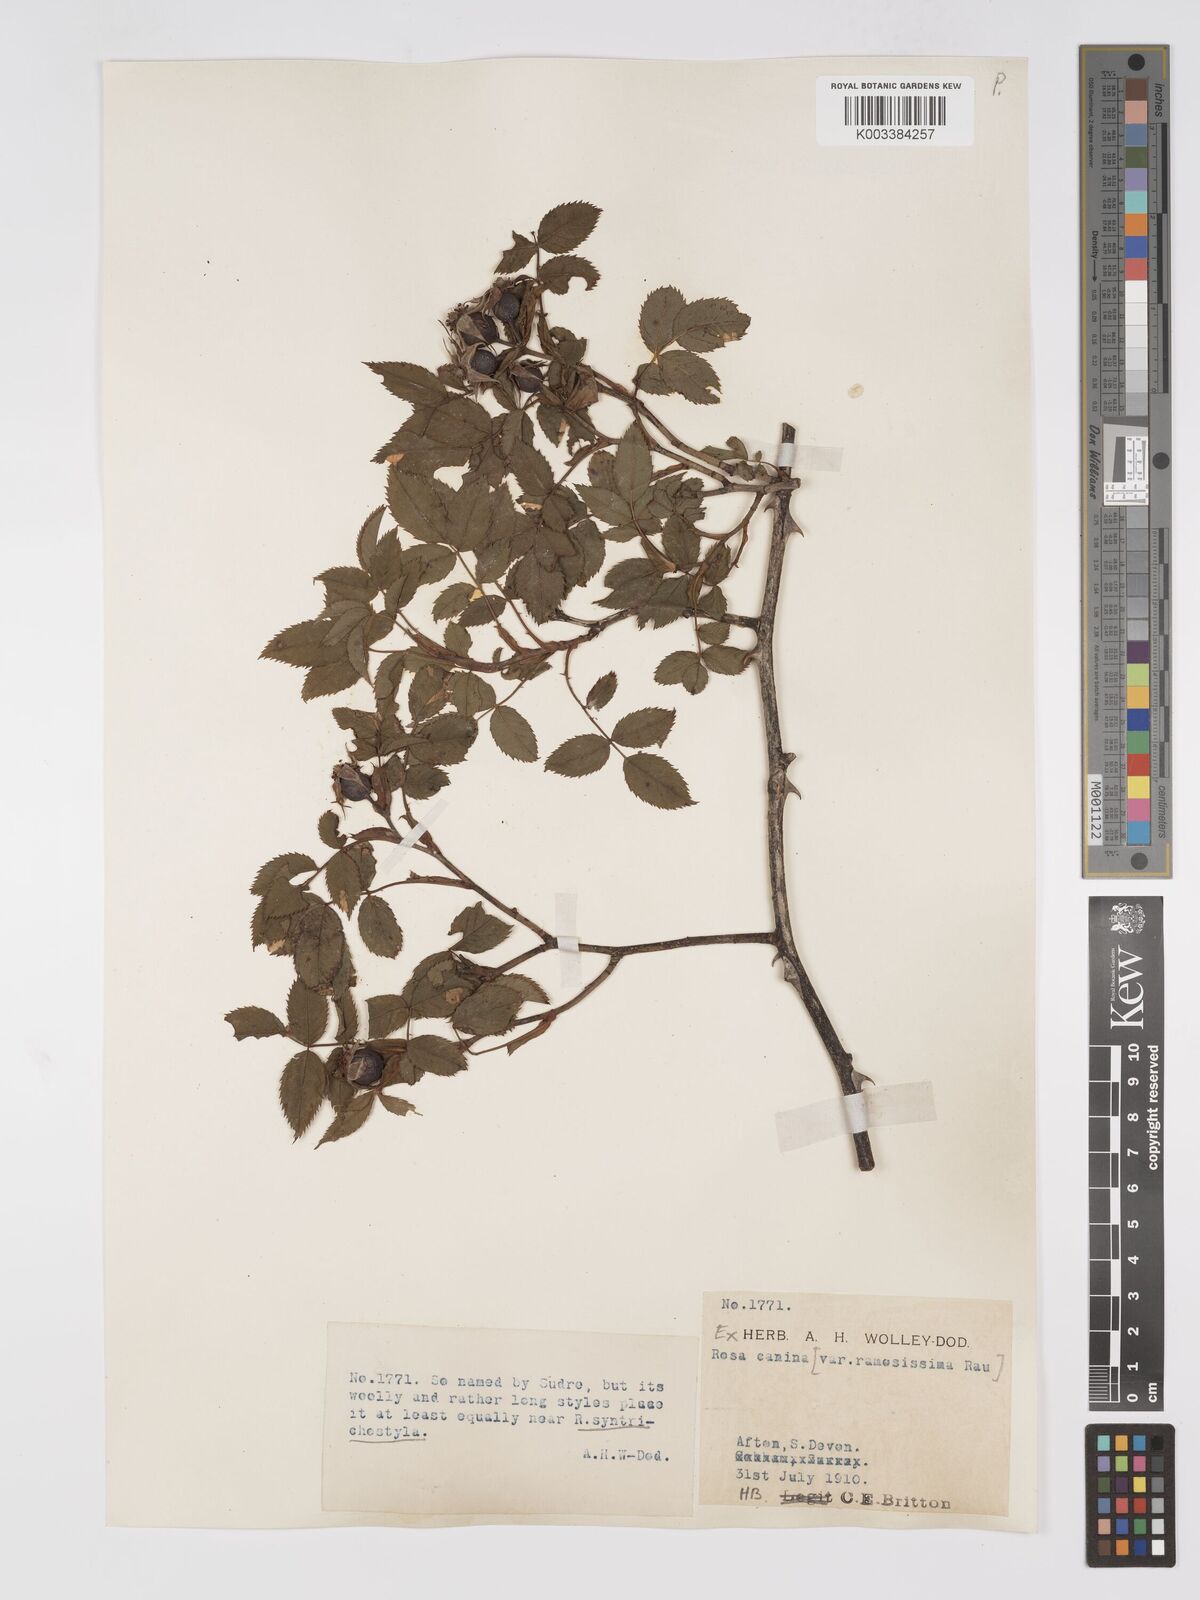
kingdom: Plantae
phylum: Tracheophyta
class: Magnoliopsida
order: Rosales
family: Rosaceae
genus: Rosa
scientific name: Rosa canina
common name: Dog rose
